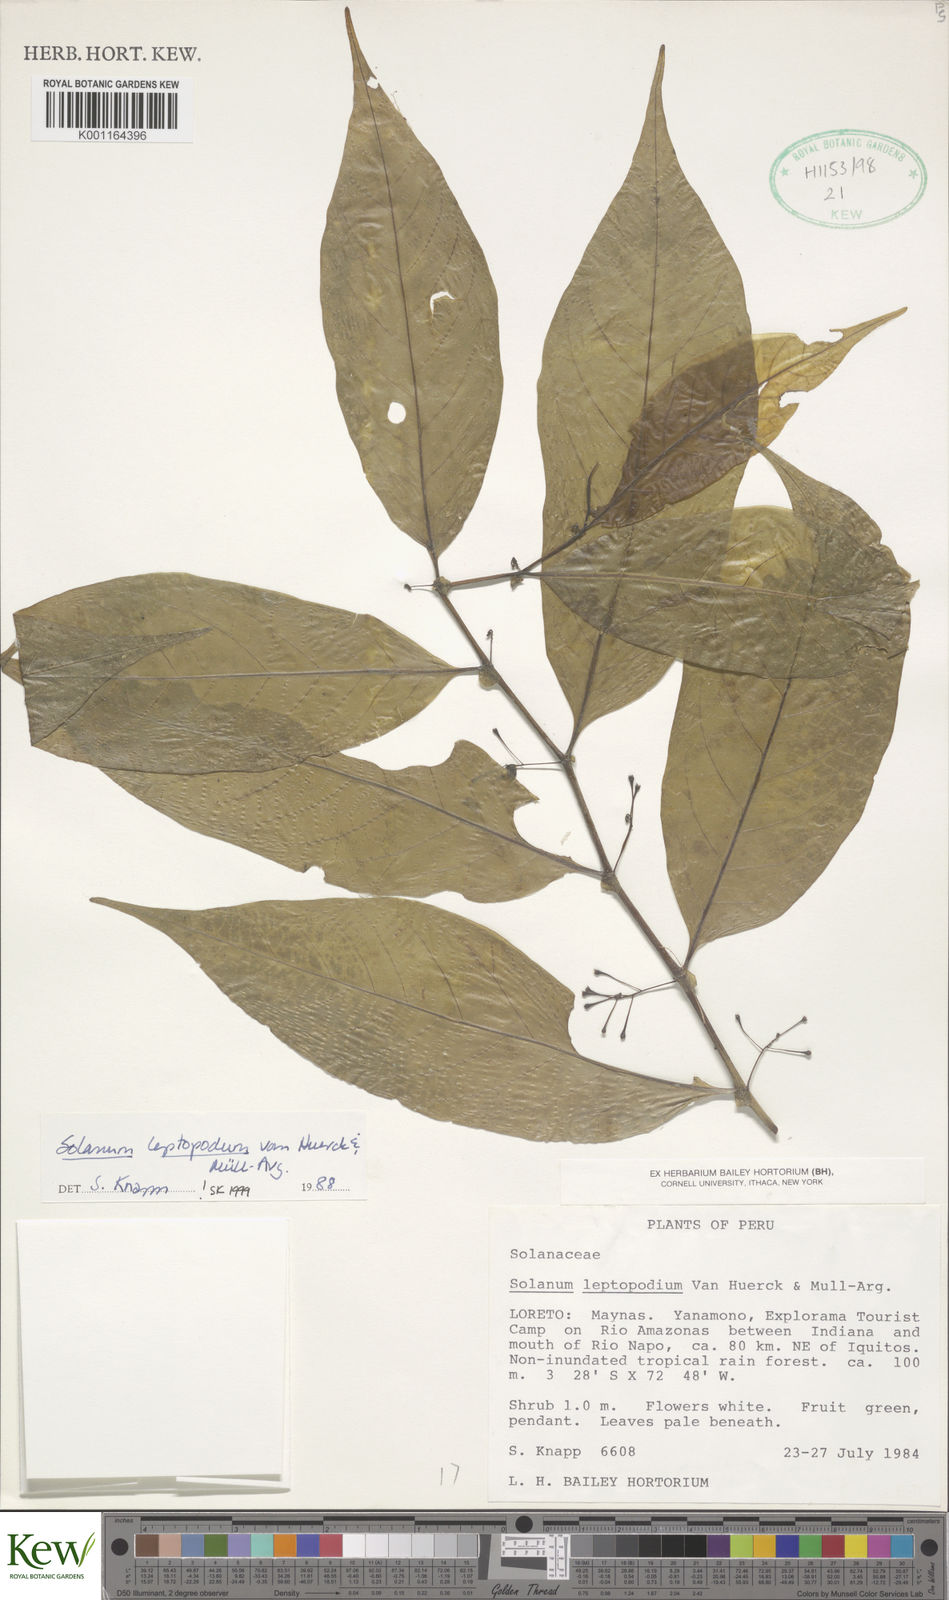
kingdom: Plantae
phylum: Tracheophyta
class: Magnoliopsida
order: Solanales
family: Solanaceae
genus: Solanum
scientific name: Solanum leptopodum
